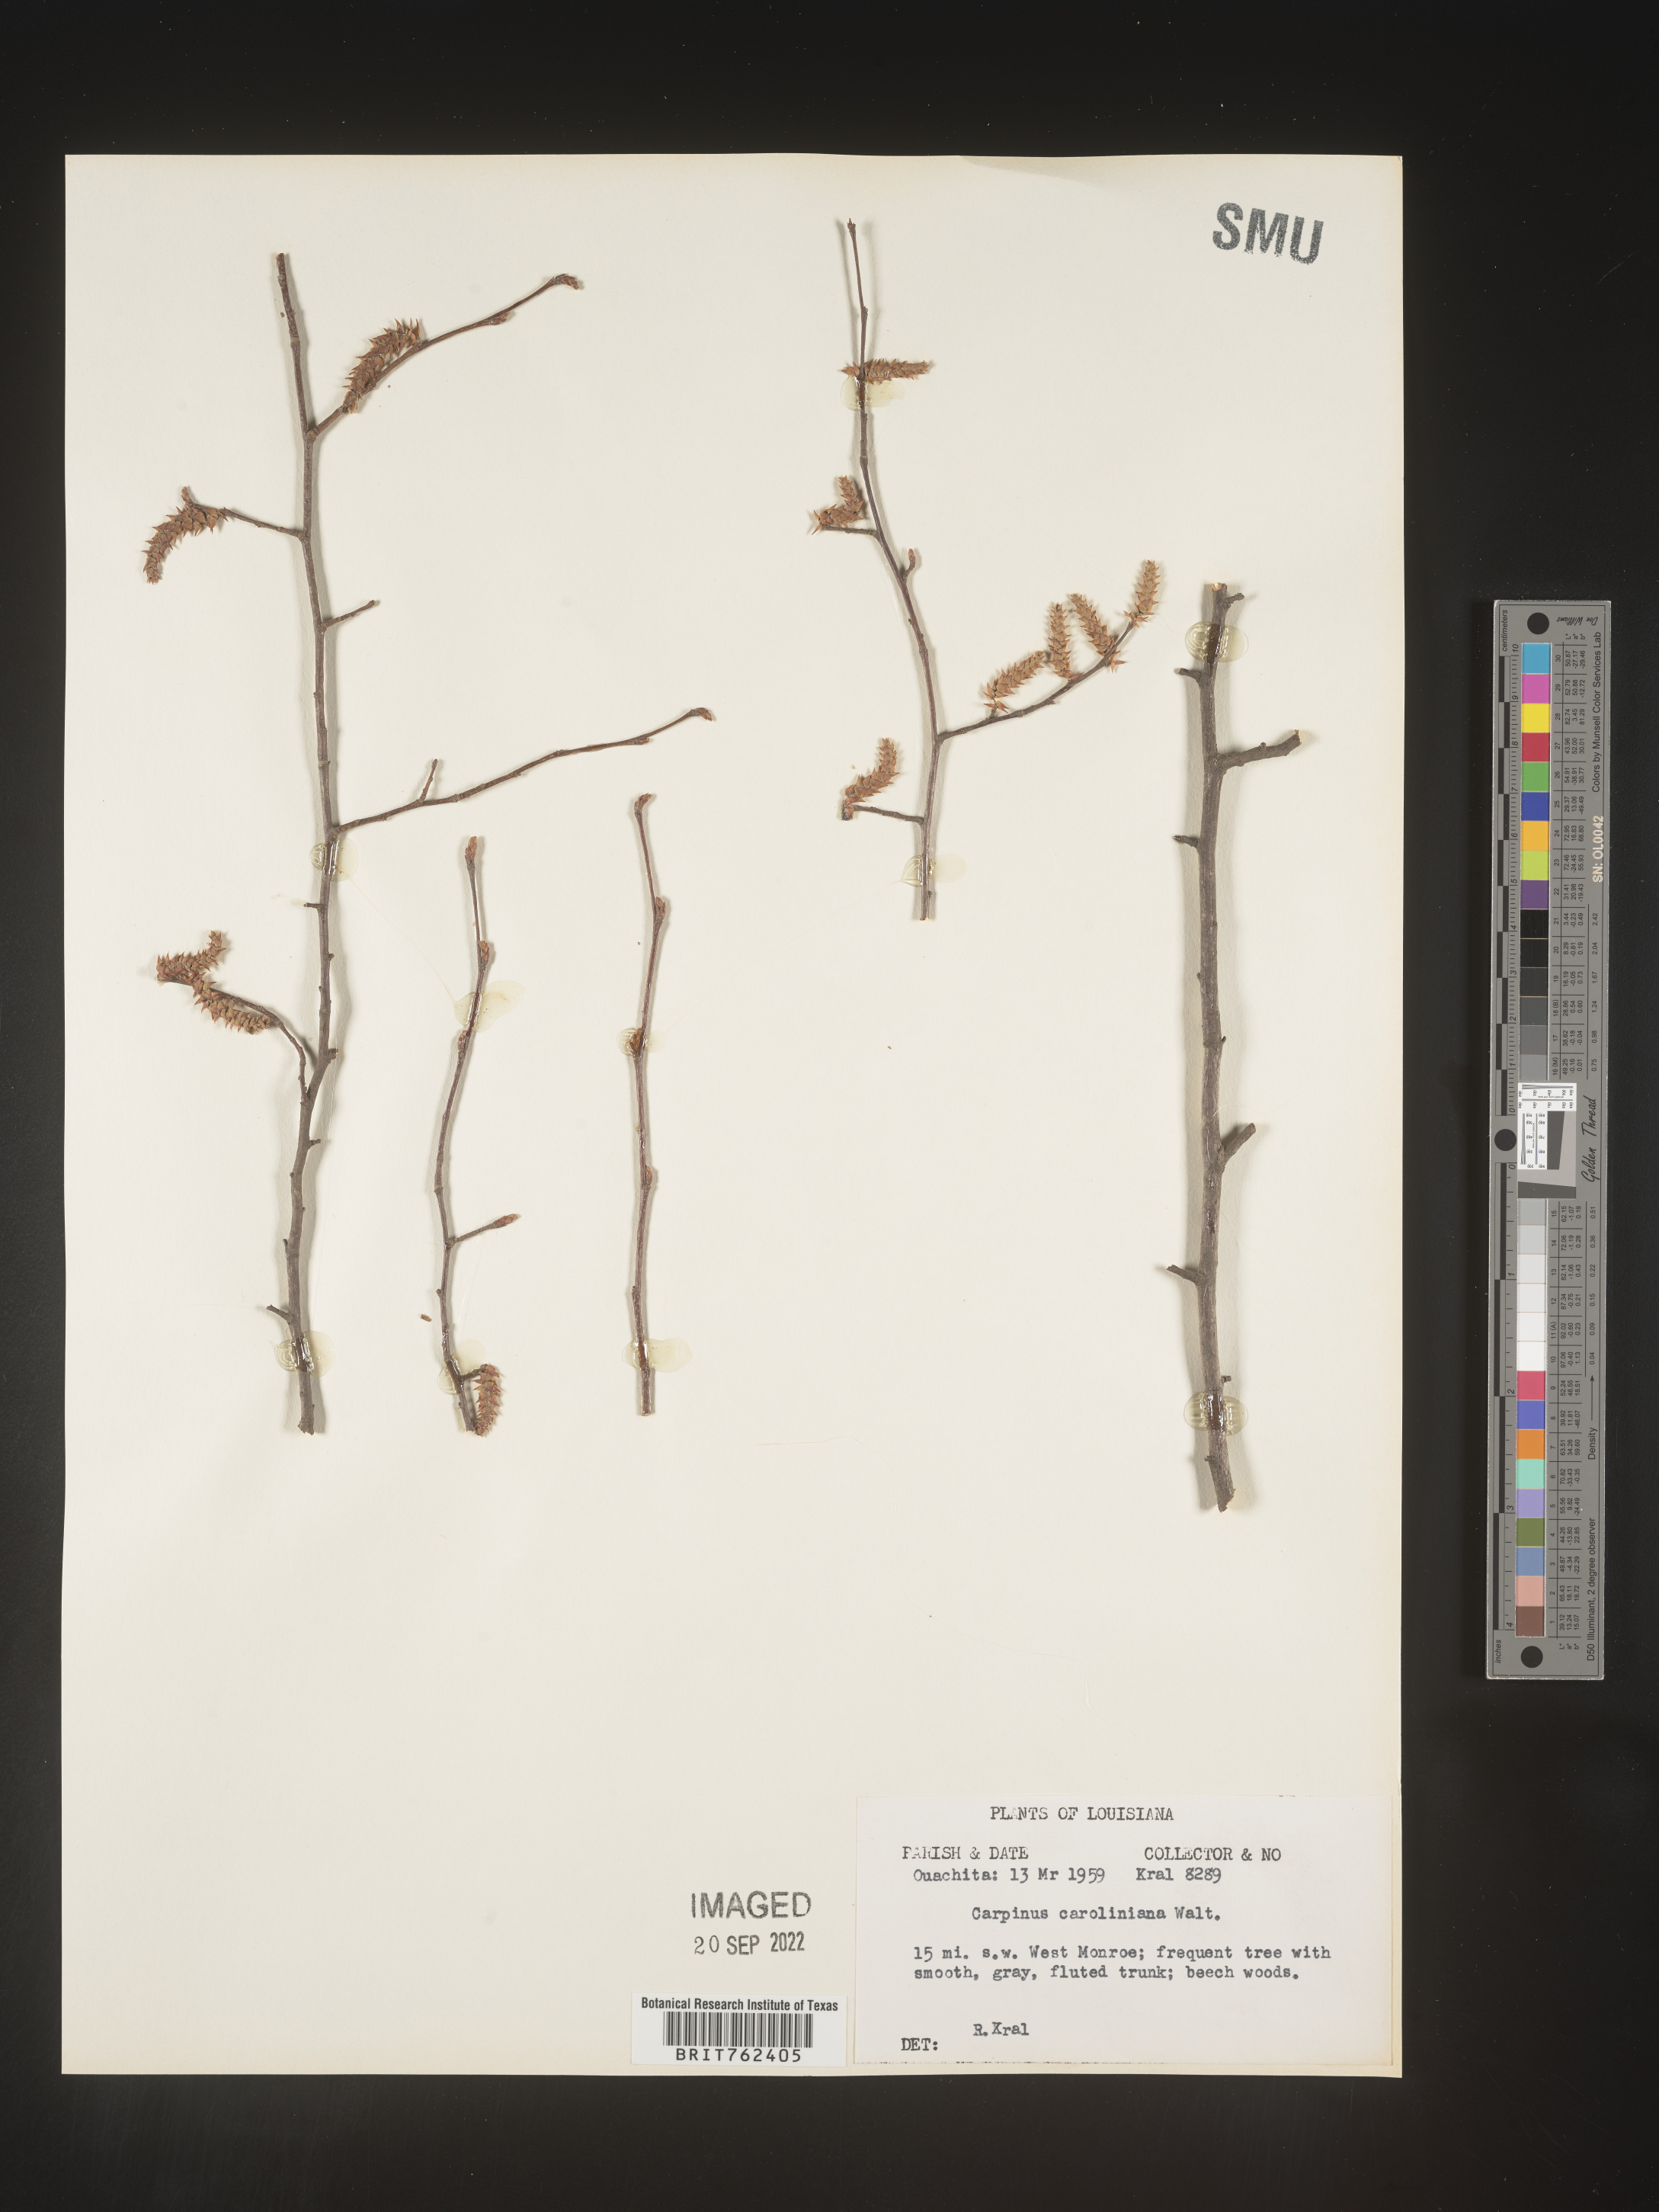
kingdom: Plantae
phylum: Tracheophyta
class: Magnoliopsida
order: Fagales
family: Betulaceae
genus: Carpinus
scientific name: Carpinus caroliniana
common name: American hornbeam
